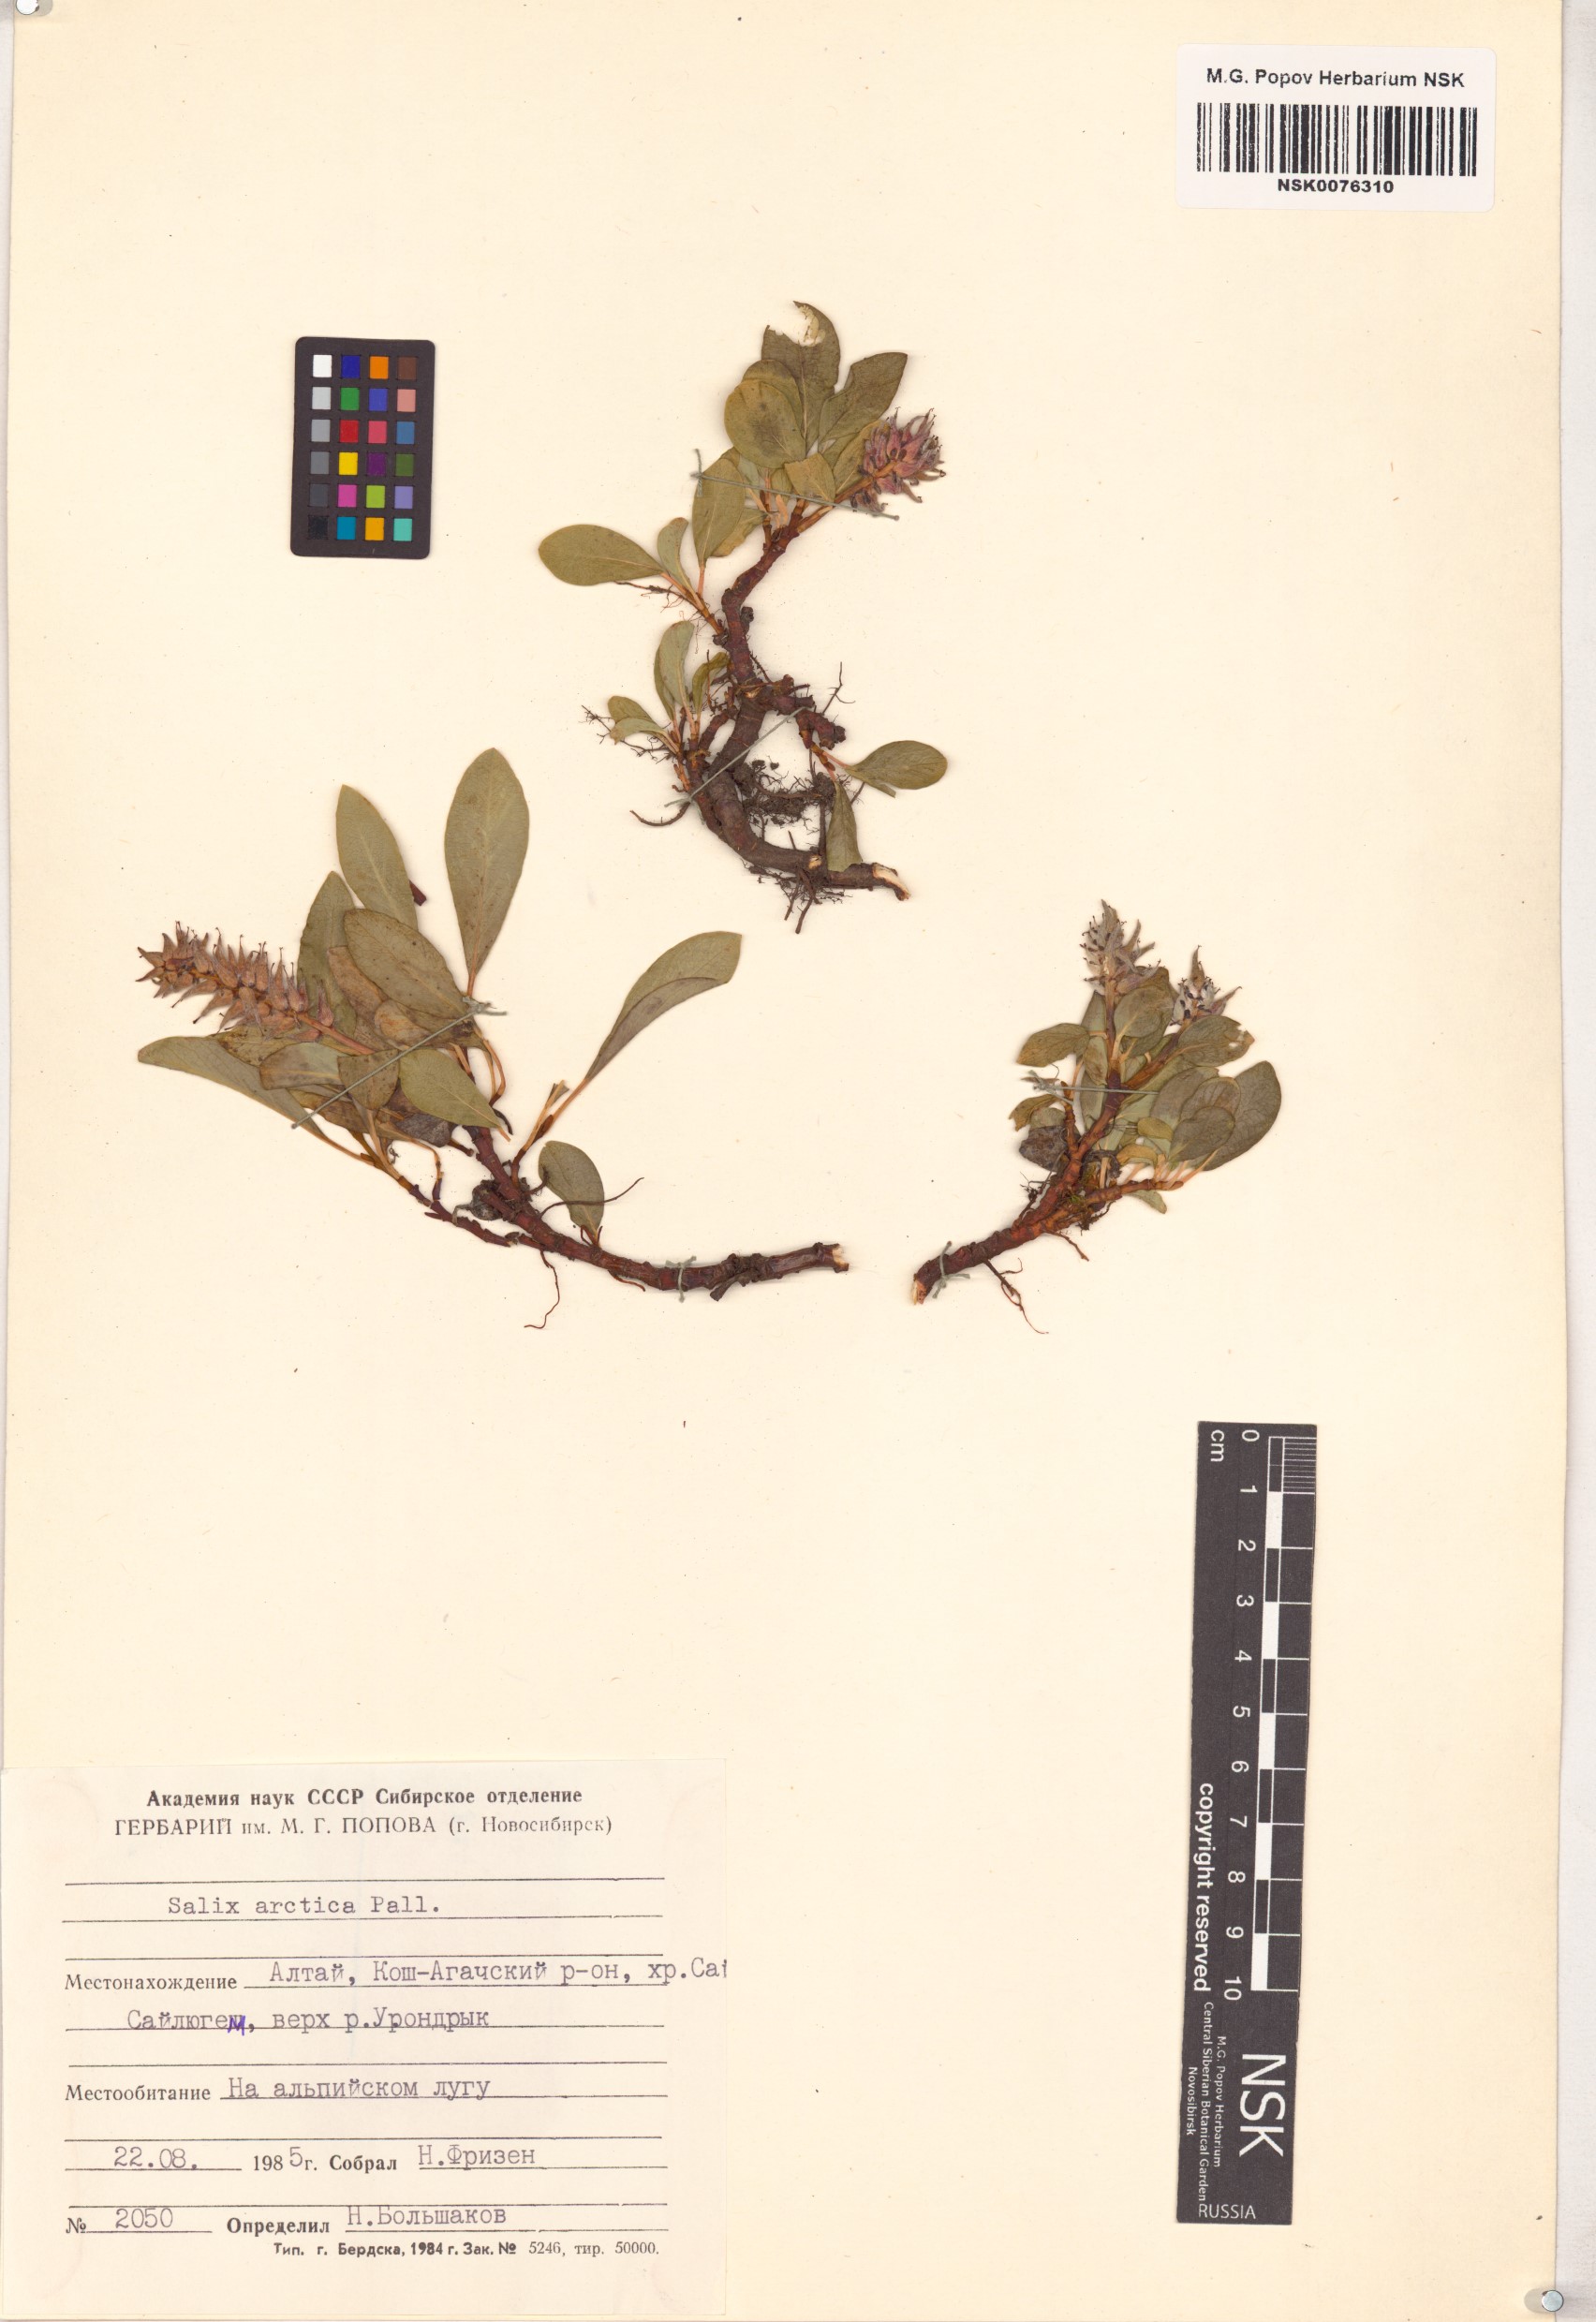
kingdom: Plantae
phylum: Tracheophyta
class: Magnoliopsida
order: Malpighiales
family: Salicaceae
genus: Salix
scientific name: Salix arctica
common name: Arctic willow
